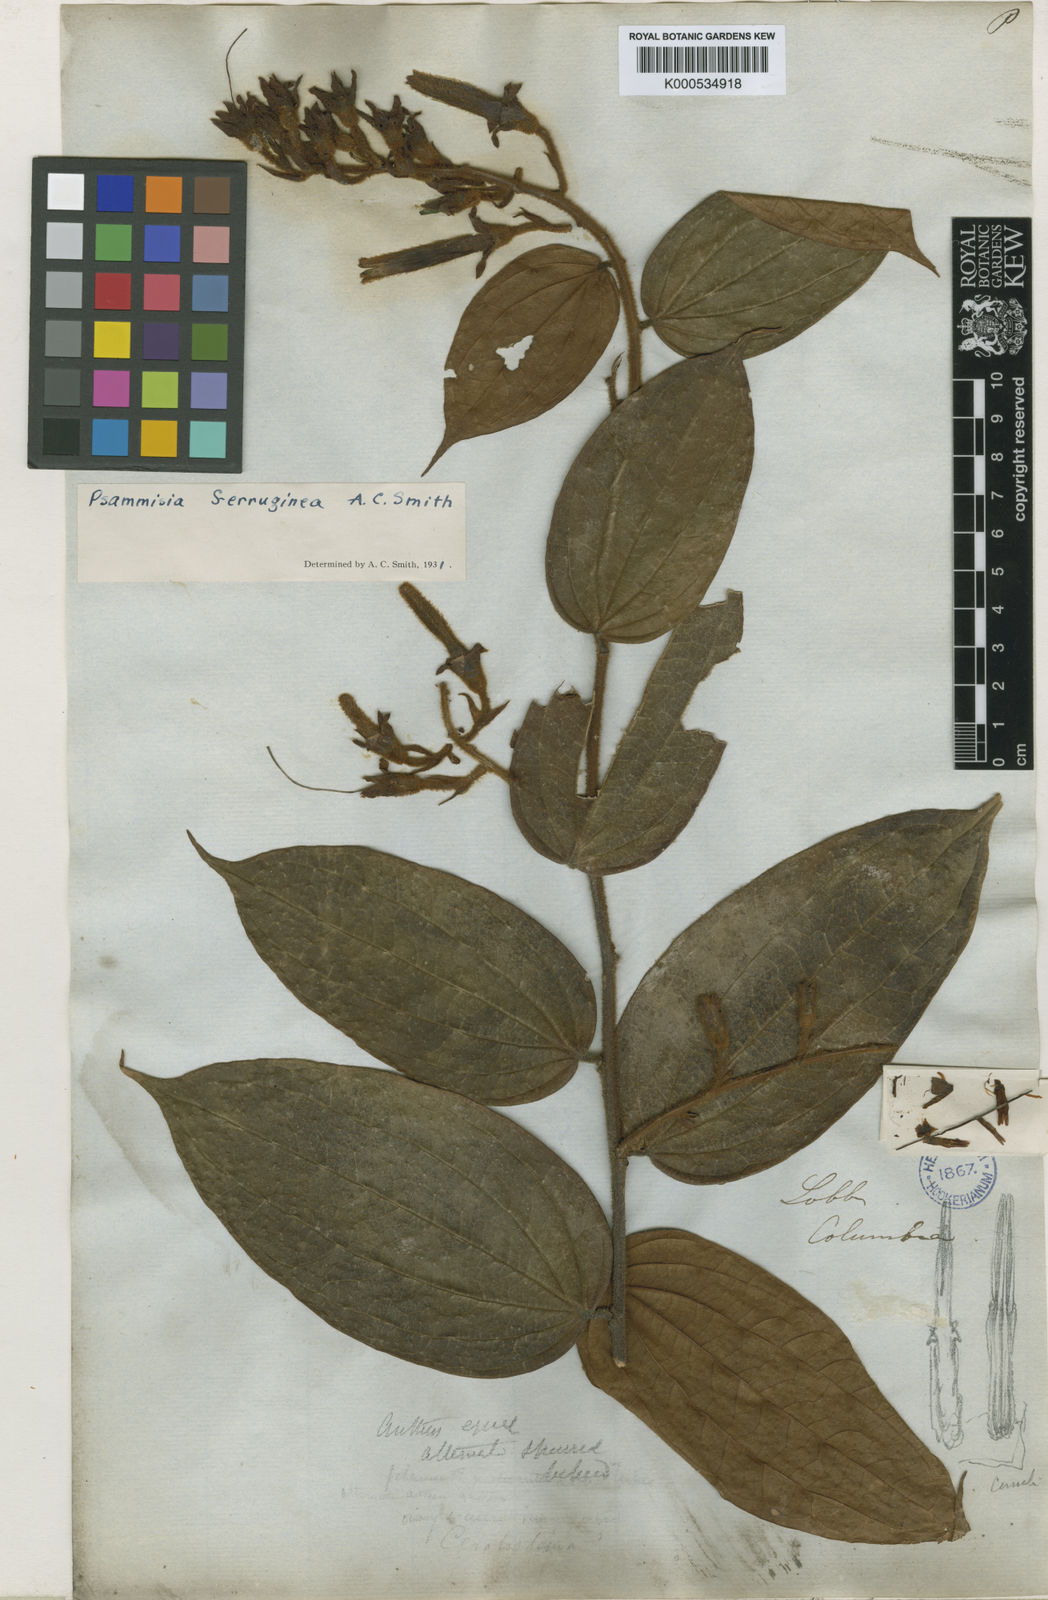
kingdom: Plantae
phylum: Tracheophyta
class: Magnoliopsida
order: Ericales
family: Ericaceae
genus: Psammisia
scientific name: Psammisia ferruginea
